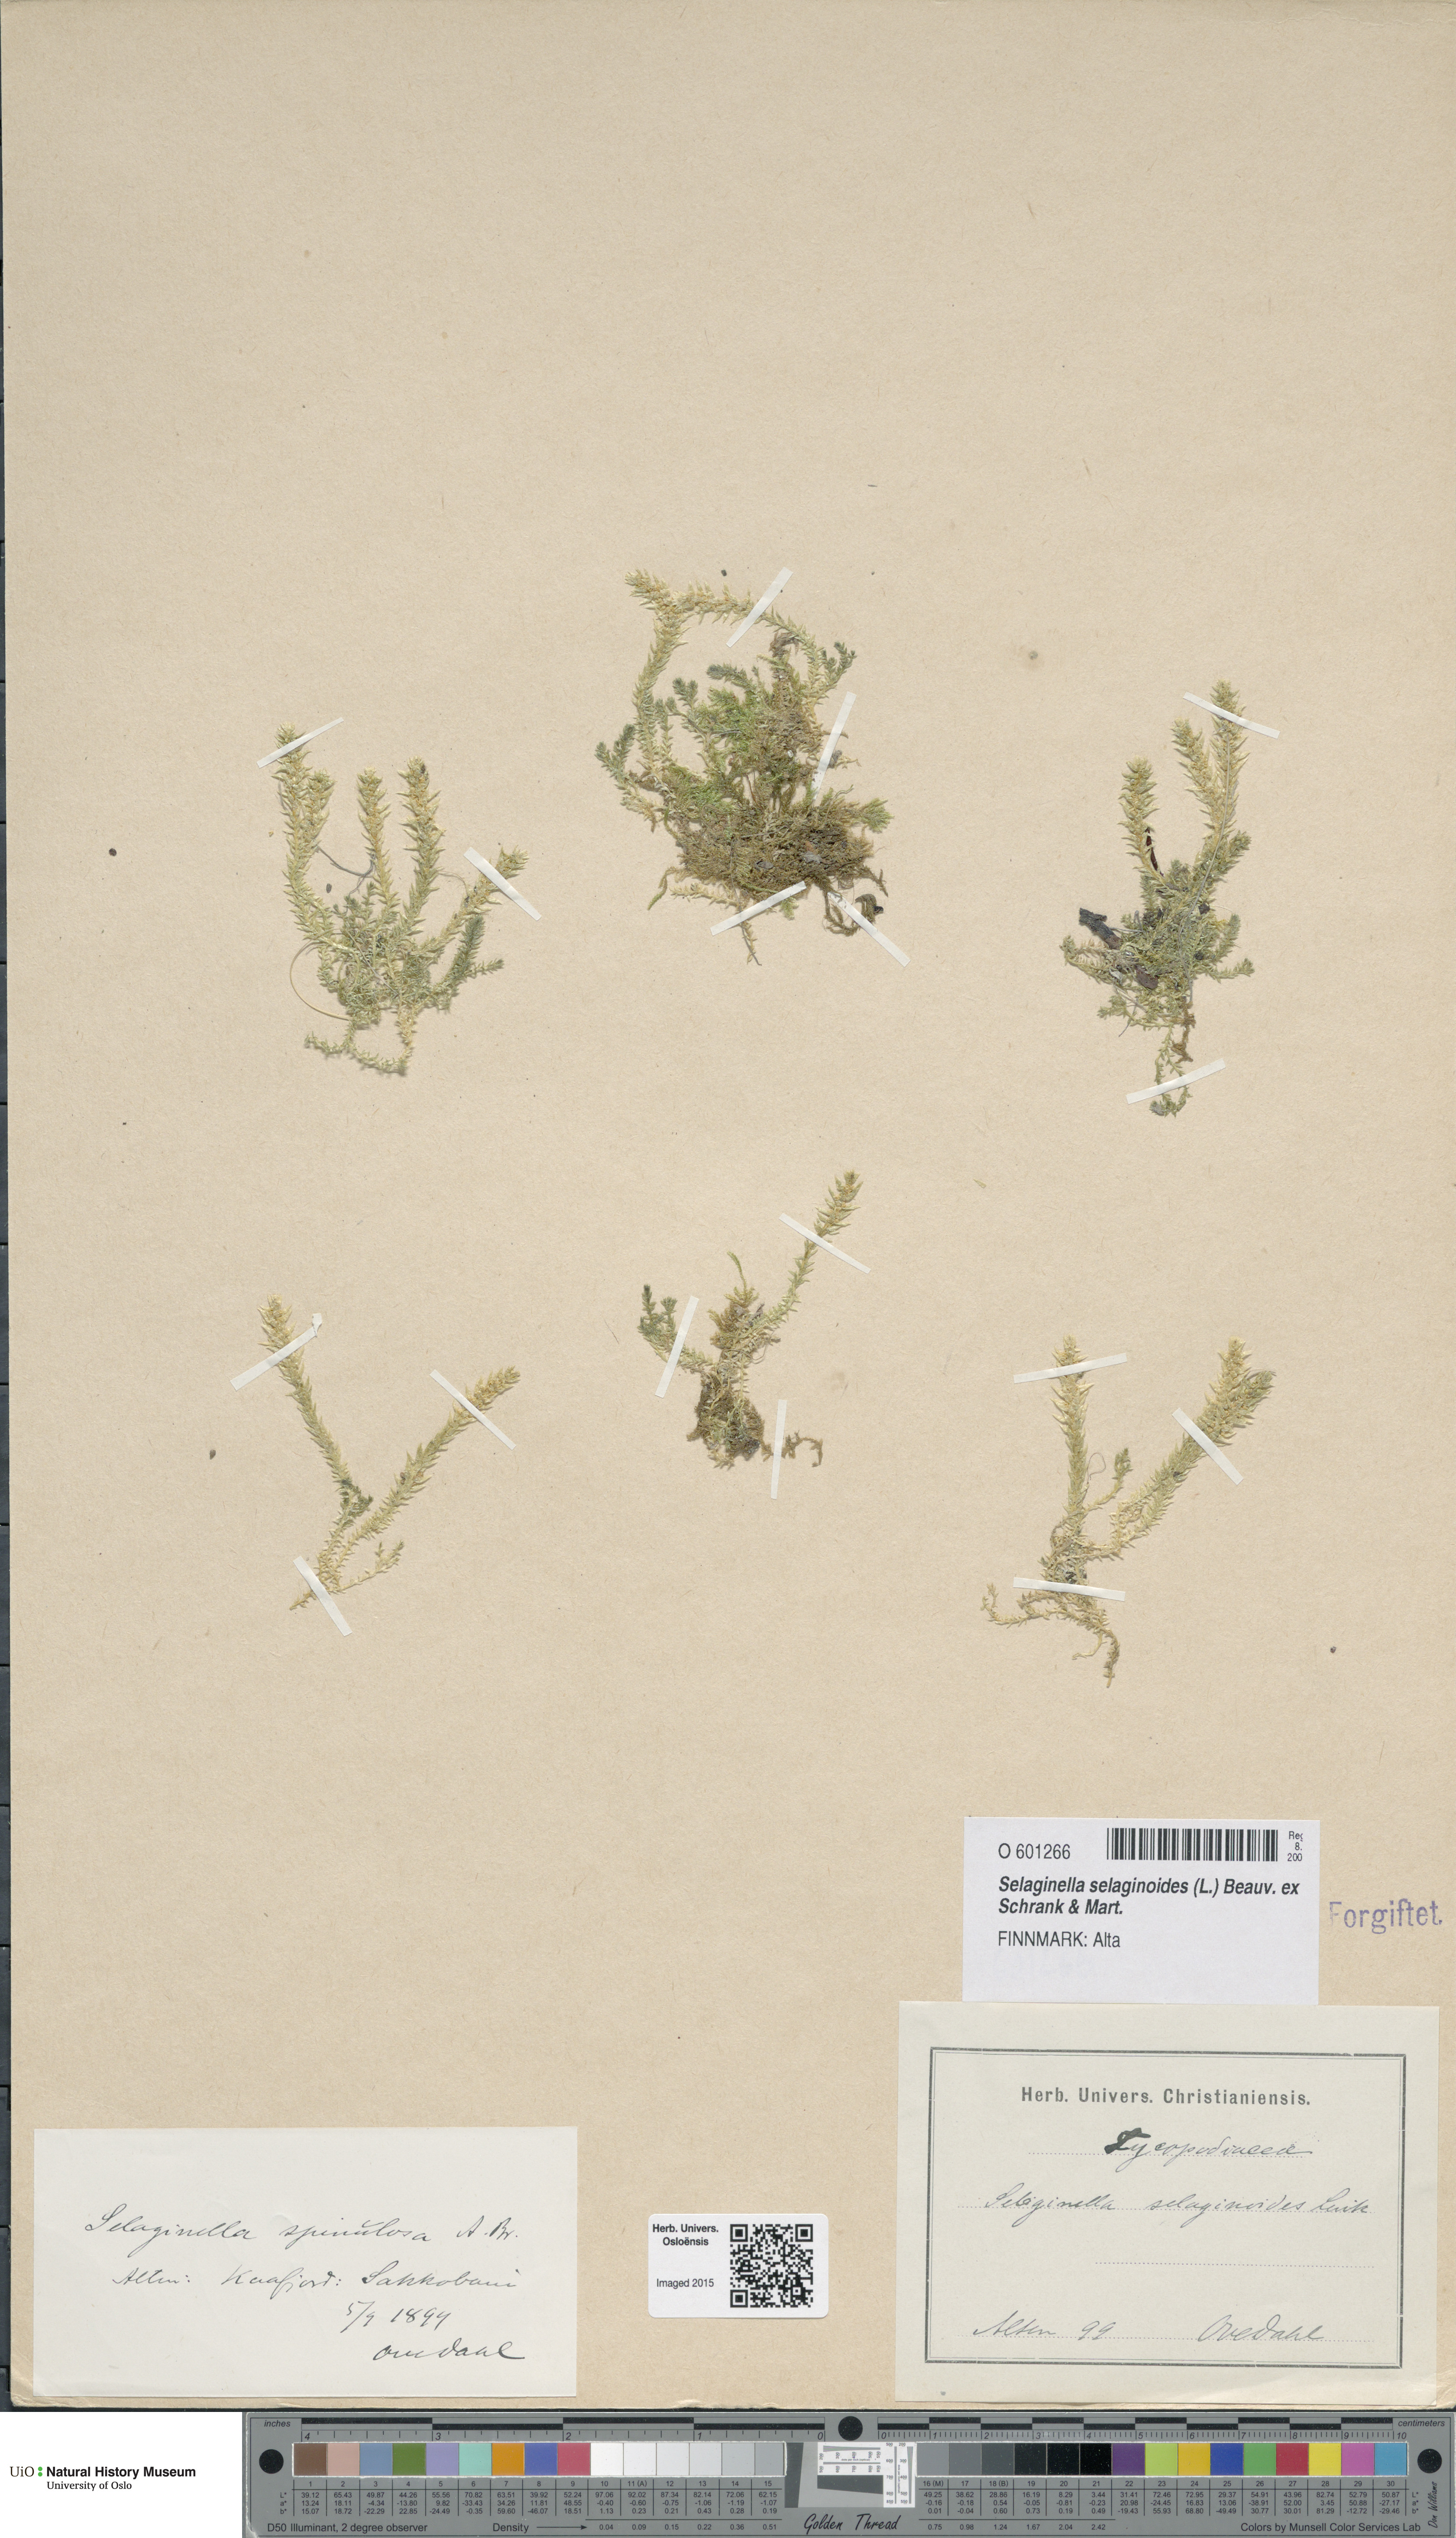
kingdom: Plantae
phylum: Tracheophyta
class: Lycopodiopsida
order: Selaginellales
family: Selaginellaceae
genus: Selaginella
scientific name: Selaginella selaginoides
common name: Prickly mountain-moss
